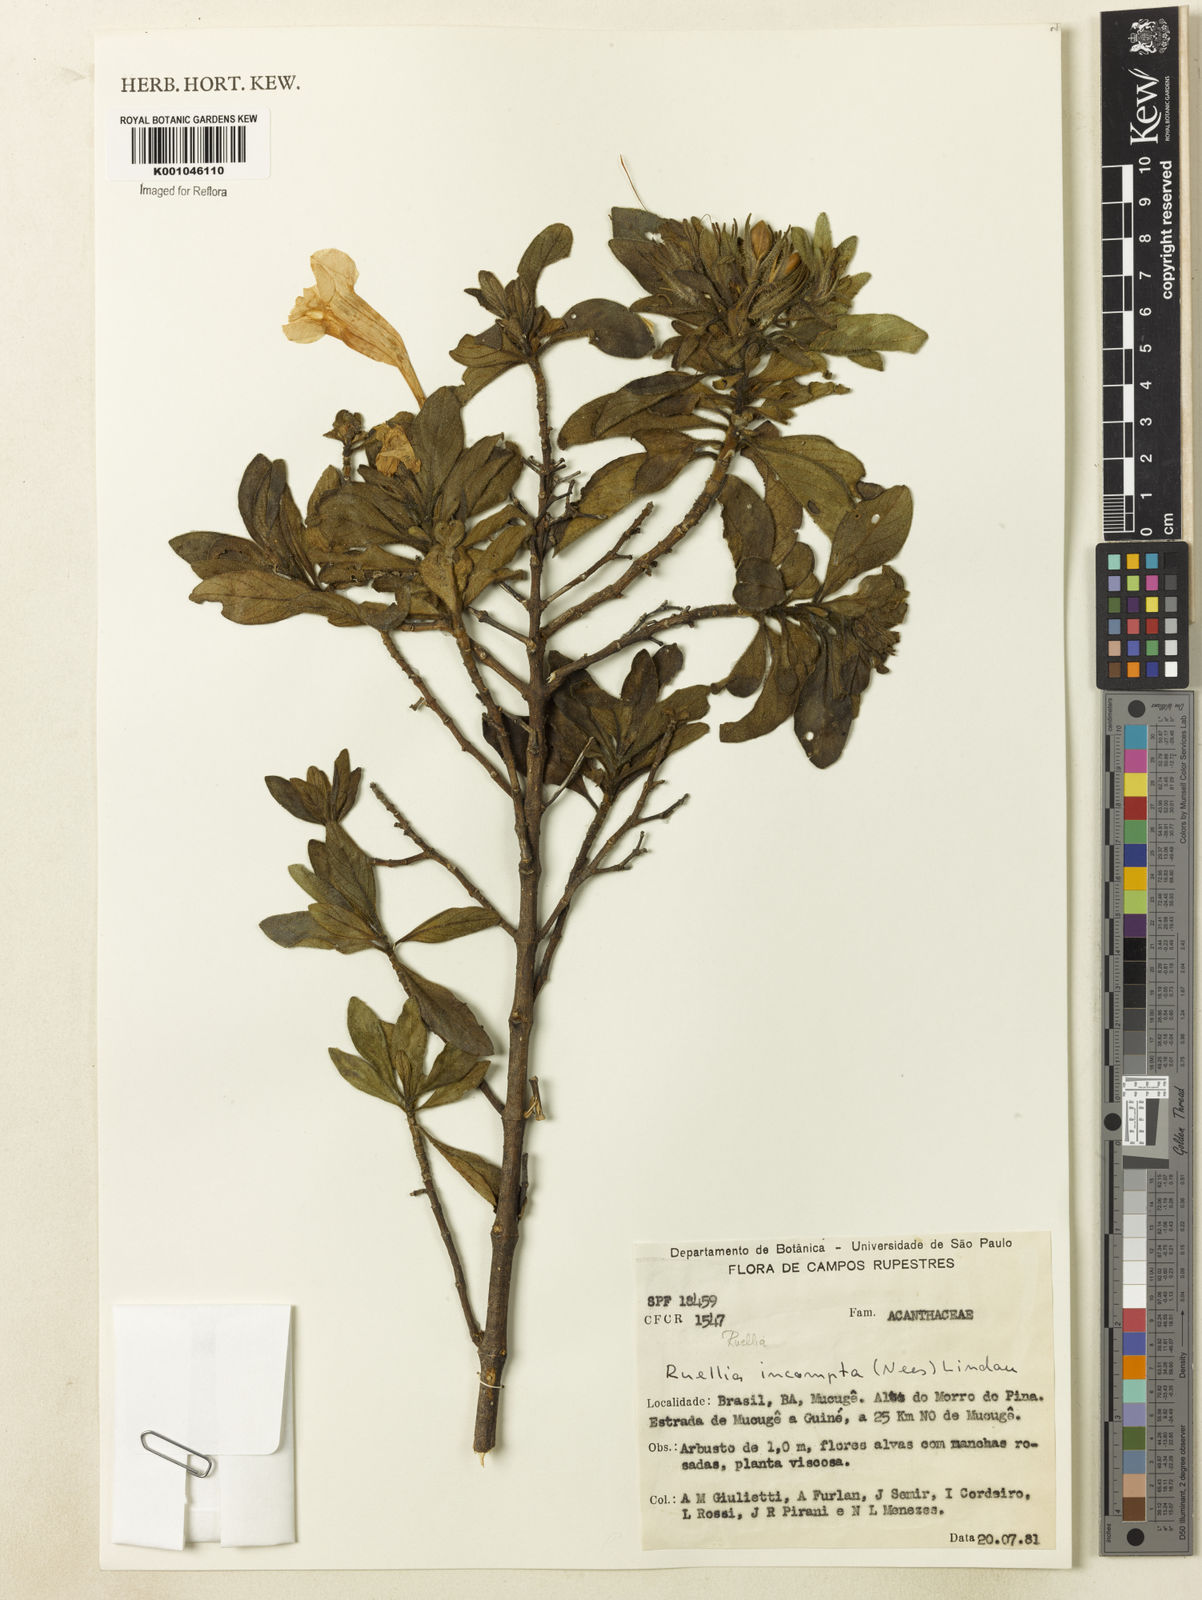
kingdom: Plantae
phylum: Tracheophyta
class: Magnoliopsida
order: Lamiales
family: Acanthaceae
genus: Ruellia
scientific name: Ruellia
